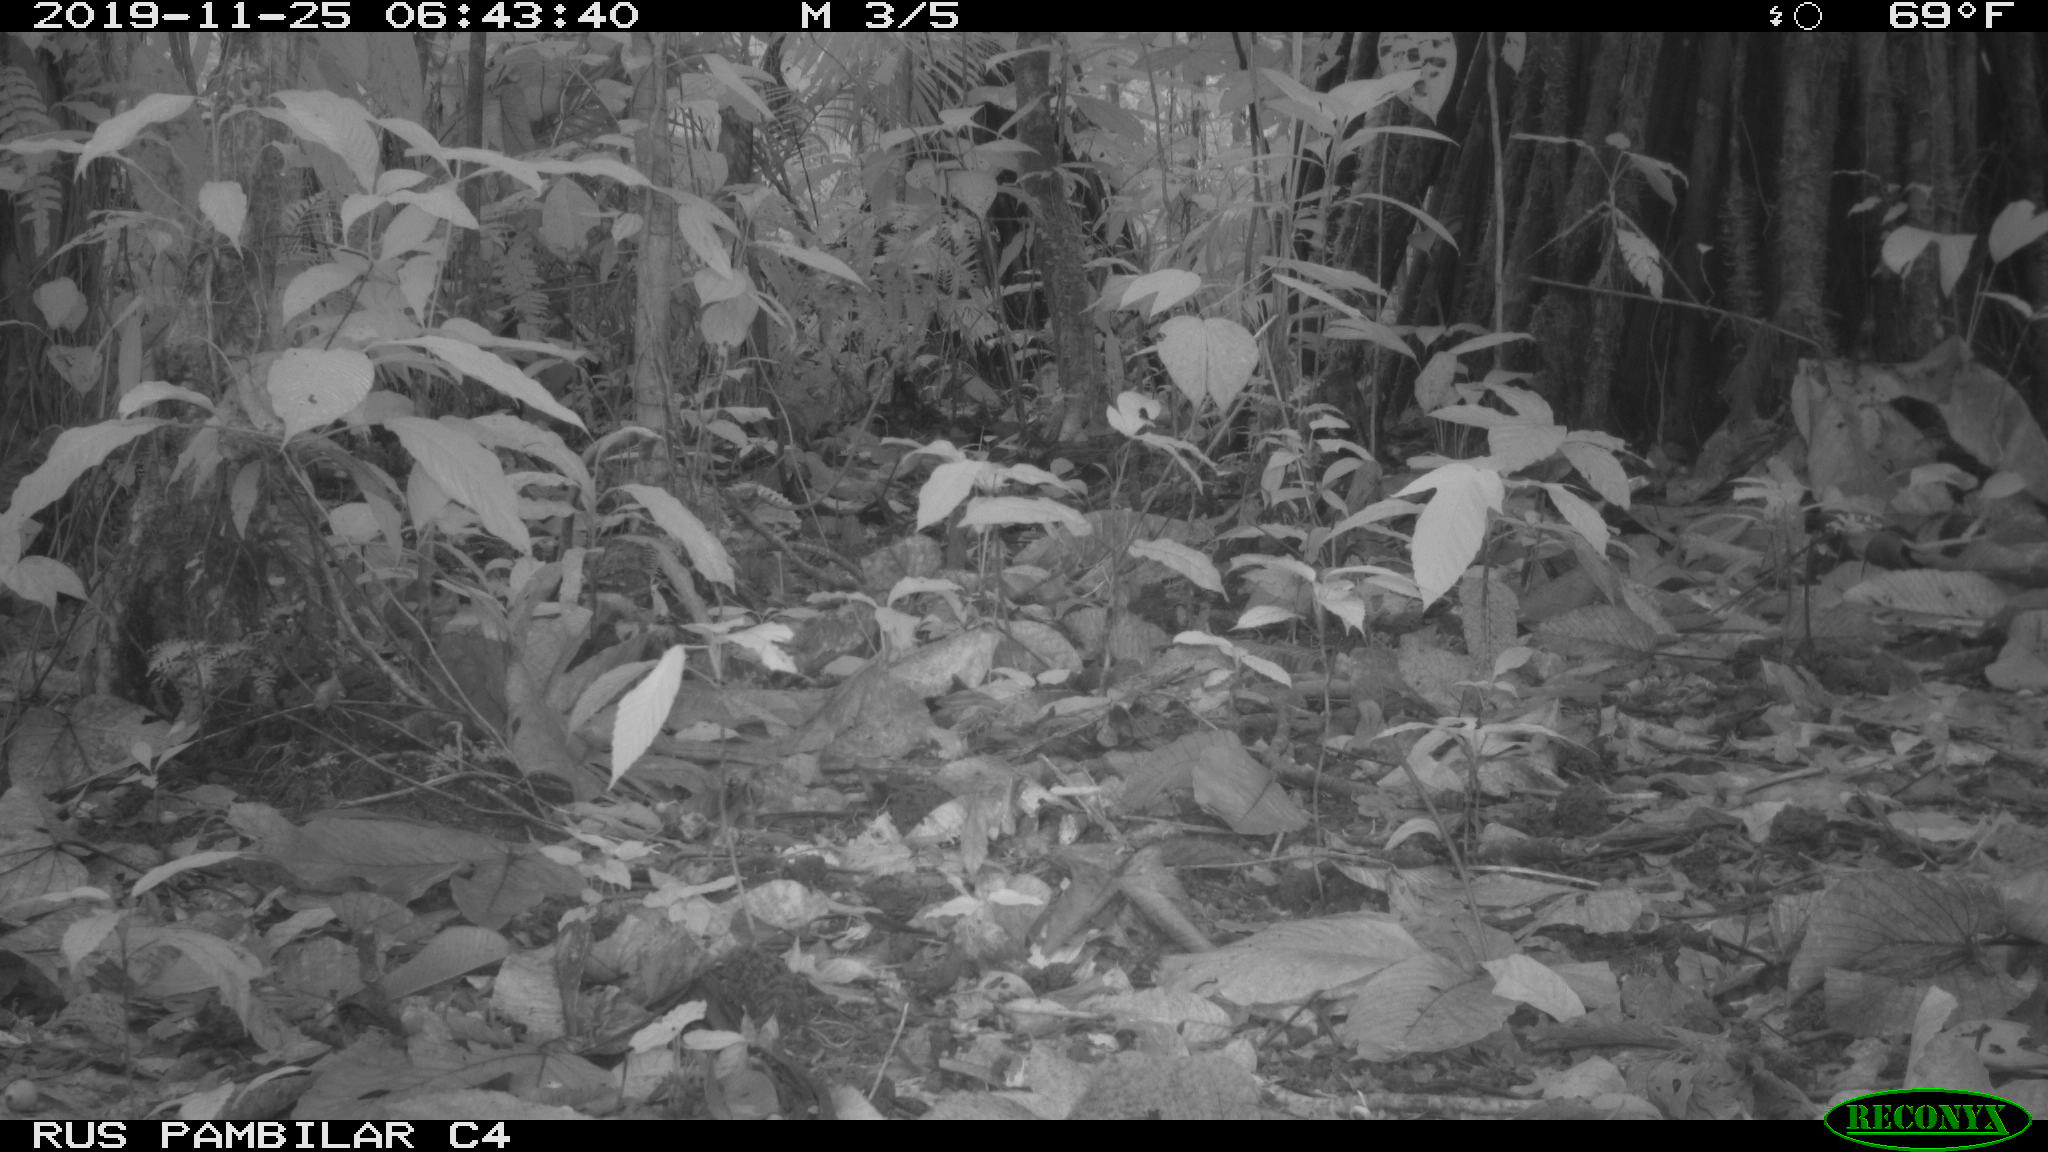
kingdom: Animalia
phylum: Chordata
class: Mammalia
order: Rodentia
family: Dasyproctidae
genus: Dasyprocta
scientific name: Dasyprocta punctata
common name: Central american agouti
